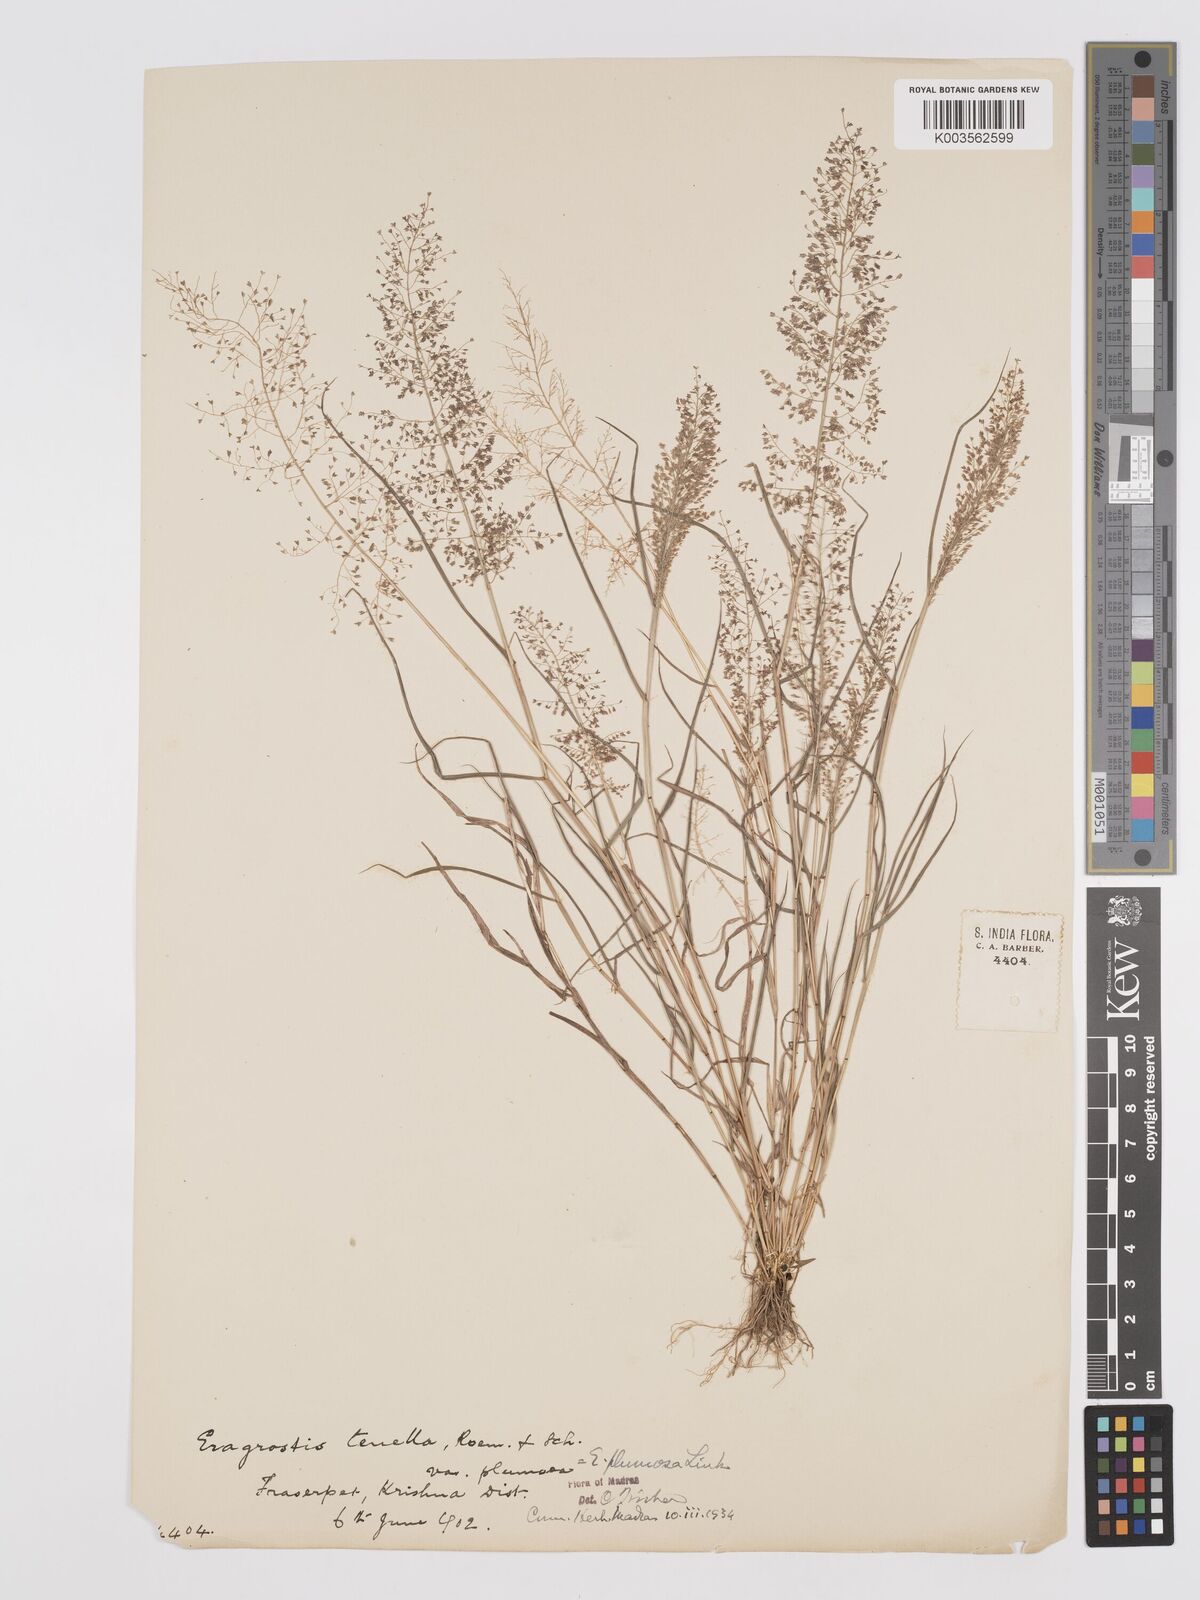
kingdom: Plantae
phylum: Tracheophyta
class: Liliopsida
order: Poales
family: Poaceae
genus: Eragrostis
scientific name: Eragrostis tenella
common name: Japanese lovegrass
